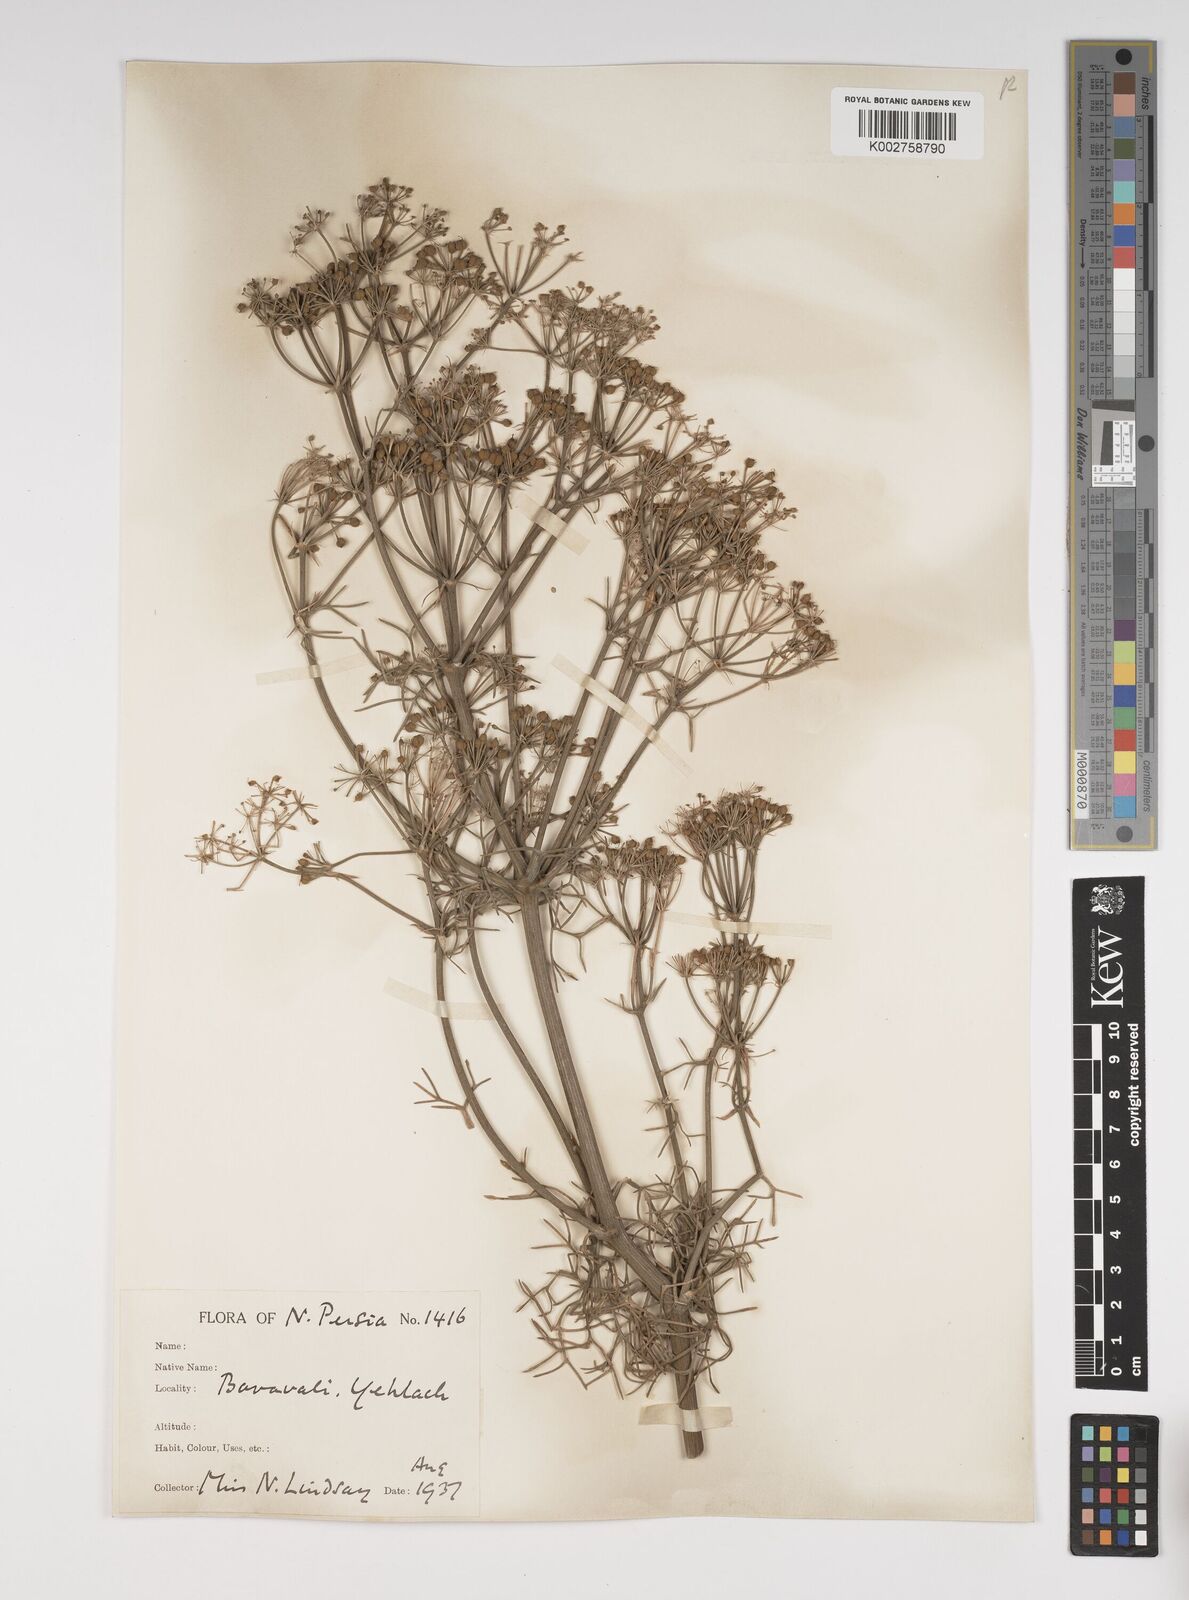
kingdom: Plantae
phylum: Tracheophyta
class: Magnoliopsida
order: Apiales
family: Apiaceae
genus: Bilacunaria
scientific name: Bilacunaria microcarpa
